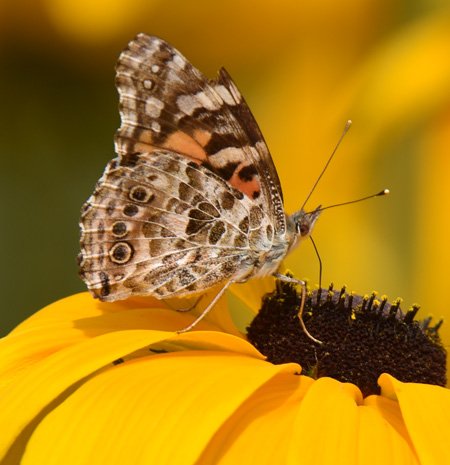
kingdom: Animalia
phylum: Arthropoda
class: Insecta
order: Lepidoptera
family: Nymphalidae
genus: Vanessa
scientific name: Vanessa cardui
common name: Painted Lady
